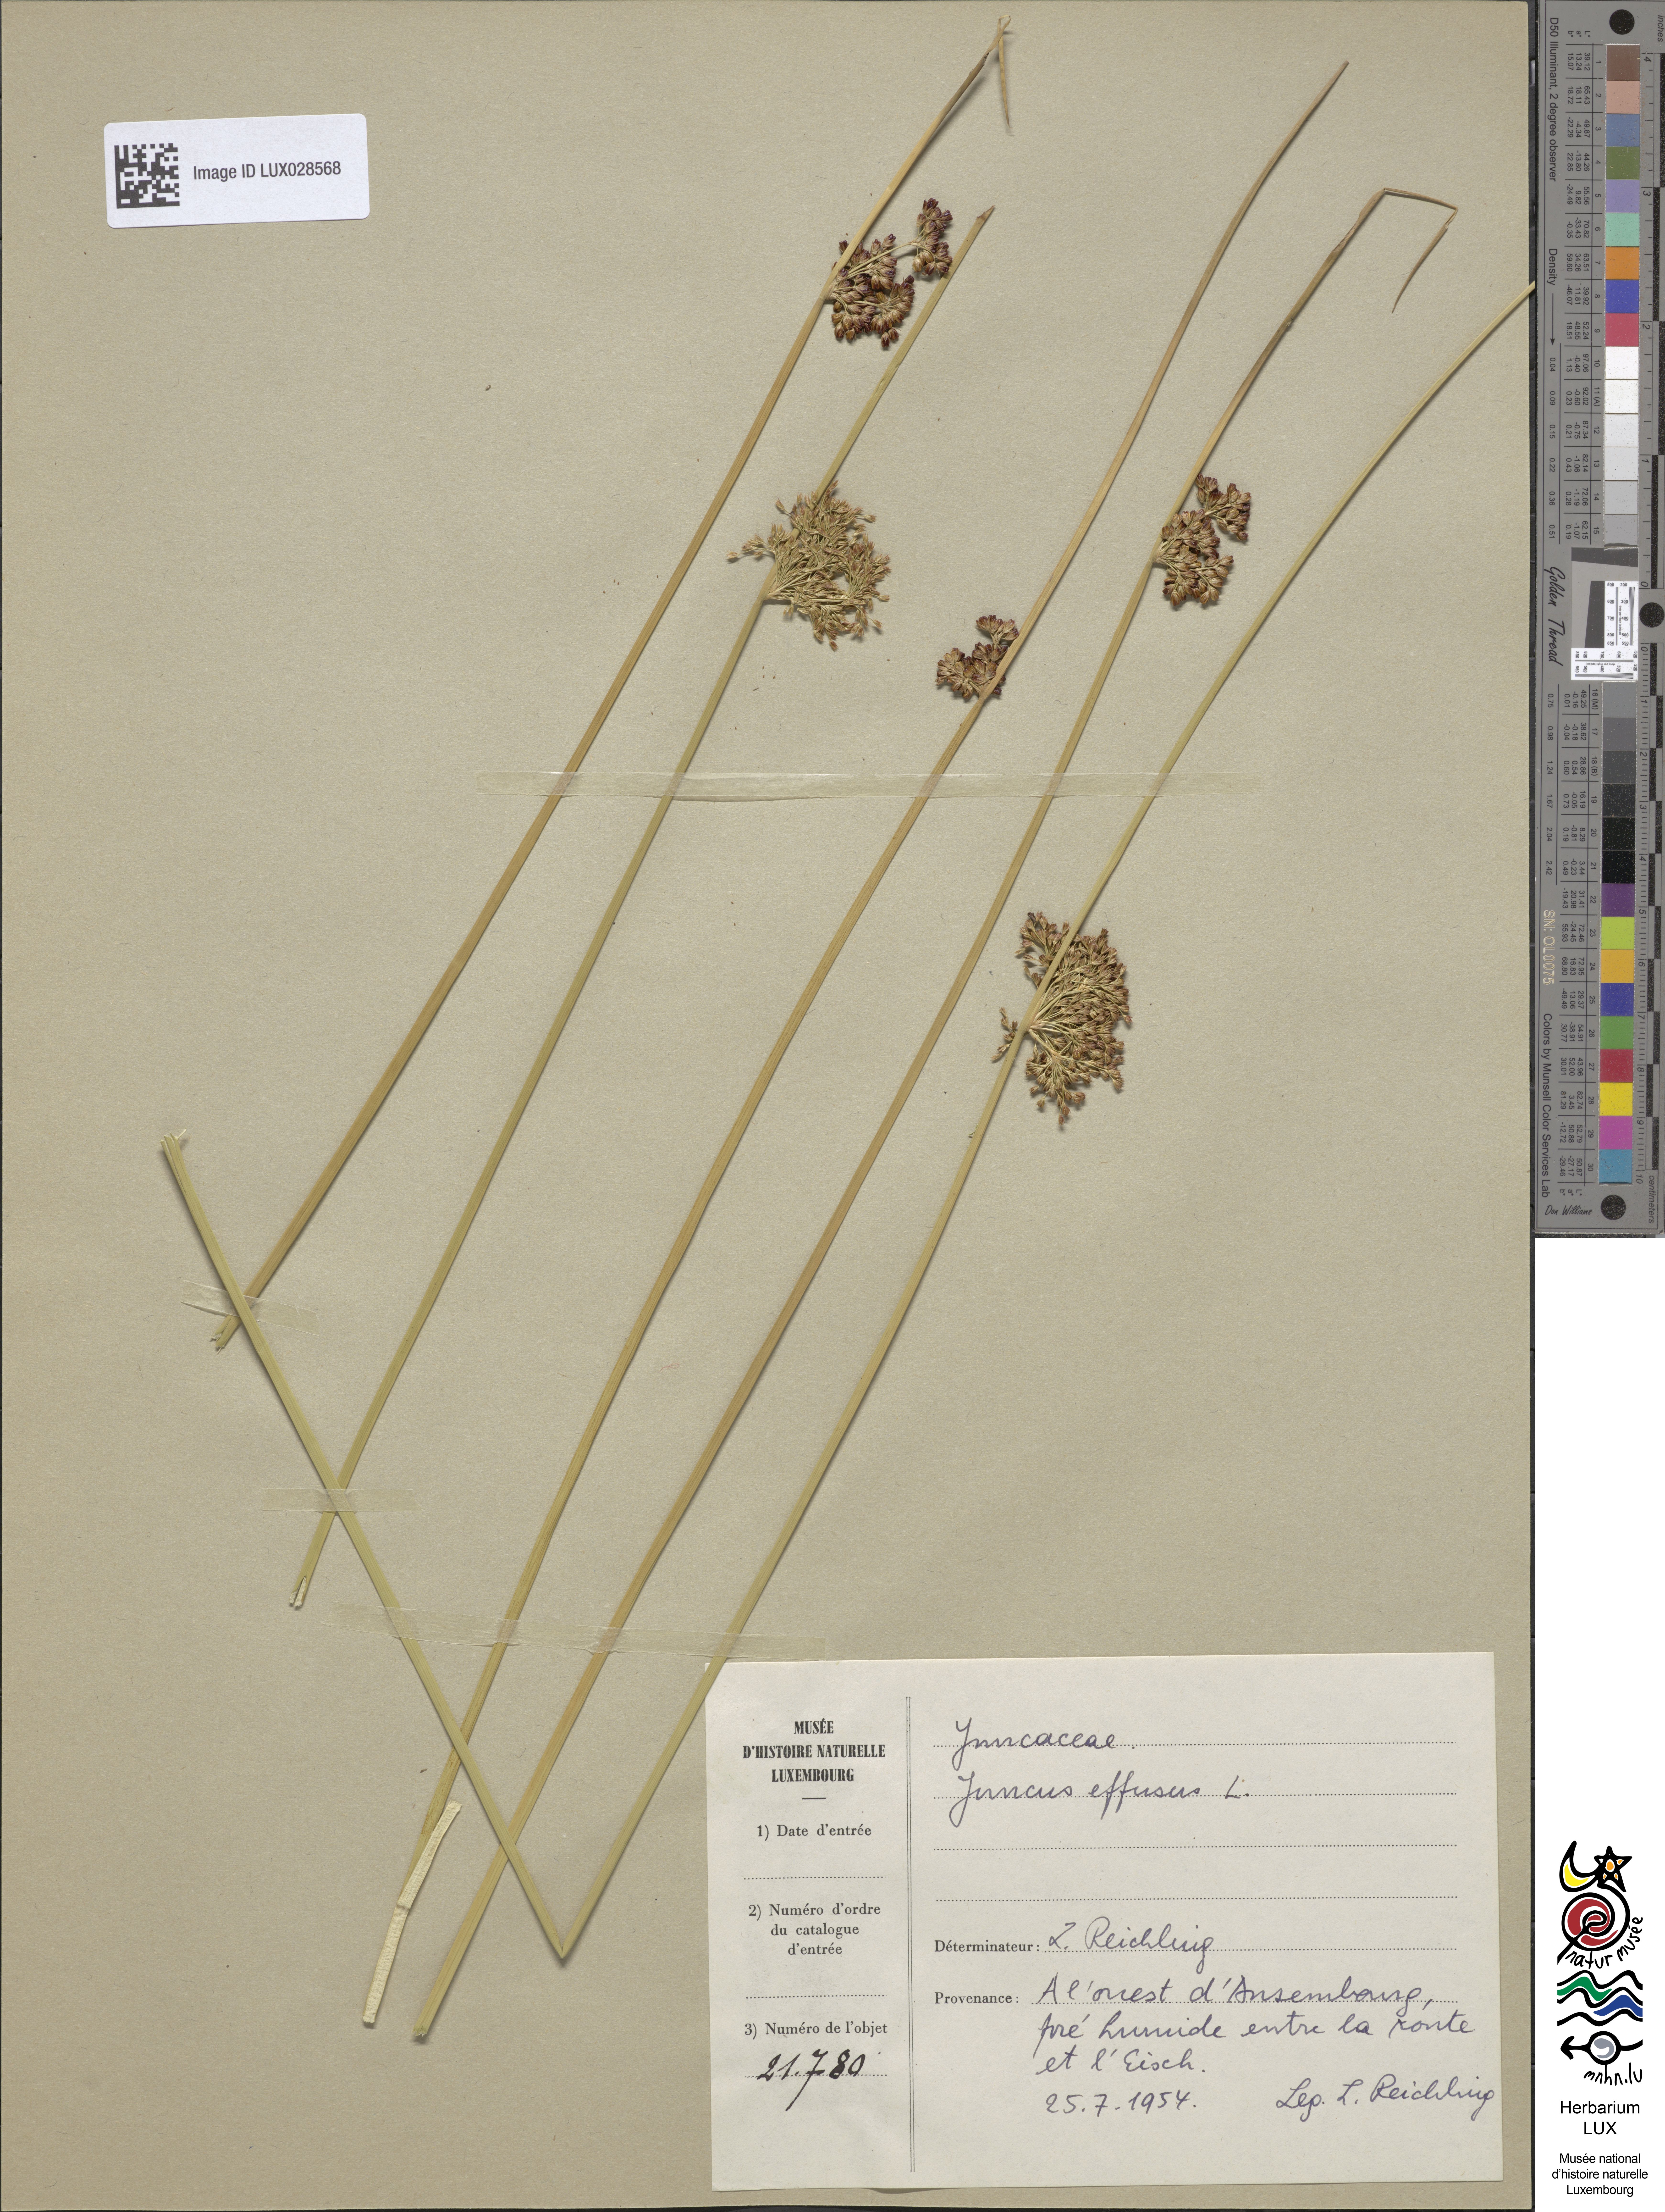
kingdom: Plantae
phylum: Tracheophyta
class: Liliopsida
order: Poales
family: Juncaceae
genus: Juncus
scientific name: Juncus effusus
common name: Soft rush
